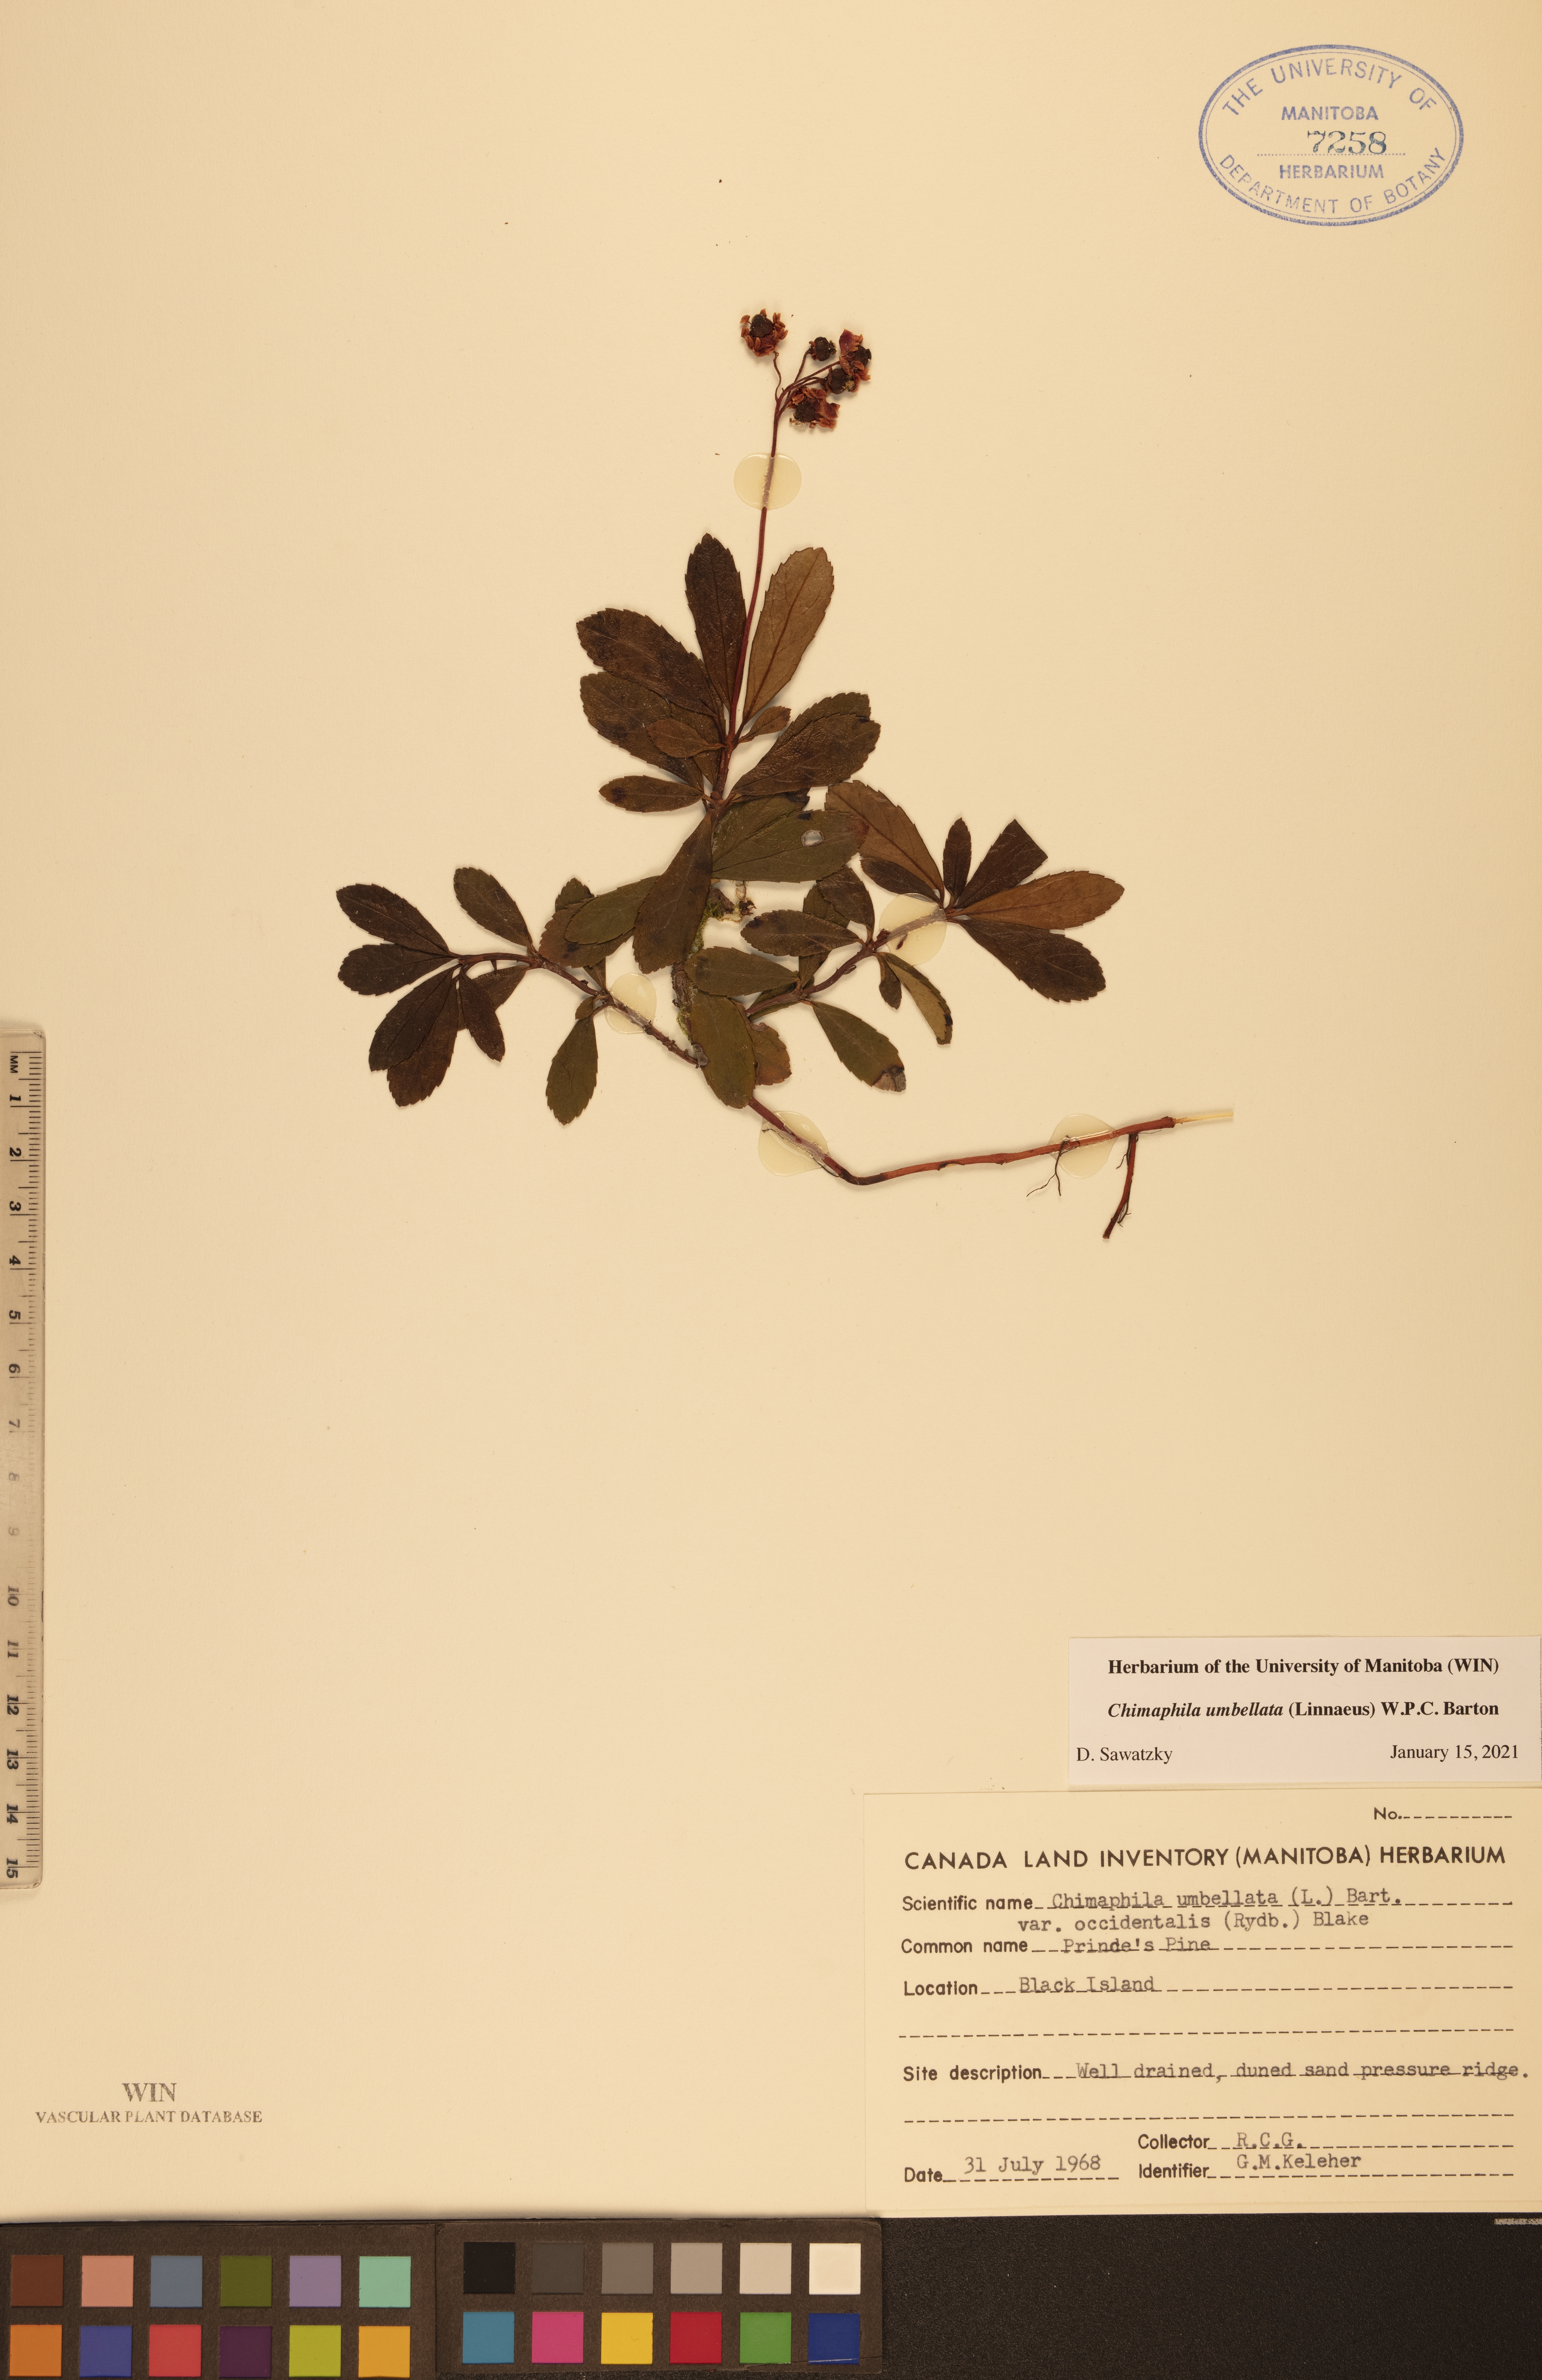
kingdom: Plantae
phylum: Tracheophyta
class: Magnoliopsida
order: Ericales
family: Ericaceae
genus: Chimaphila
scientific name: Chimaphila umbellata
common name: Pipsissewa
